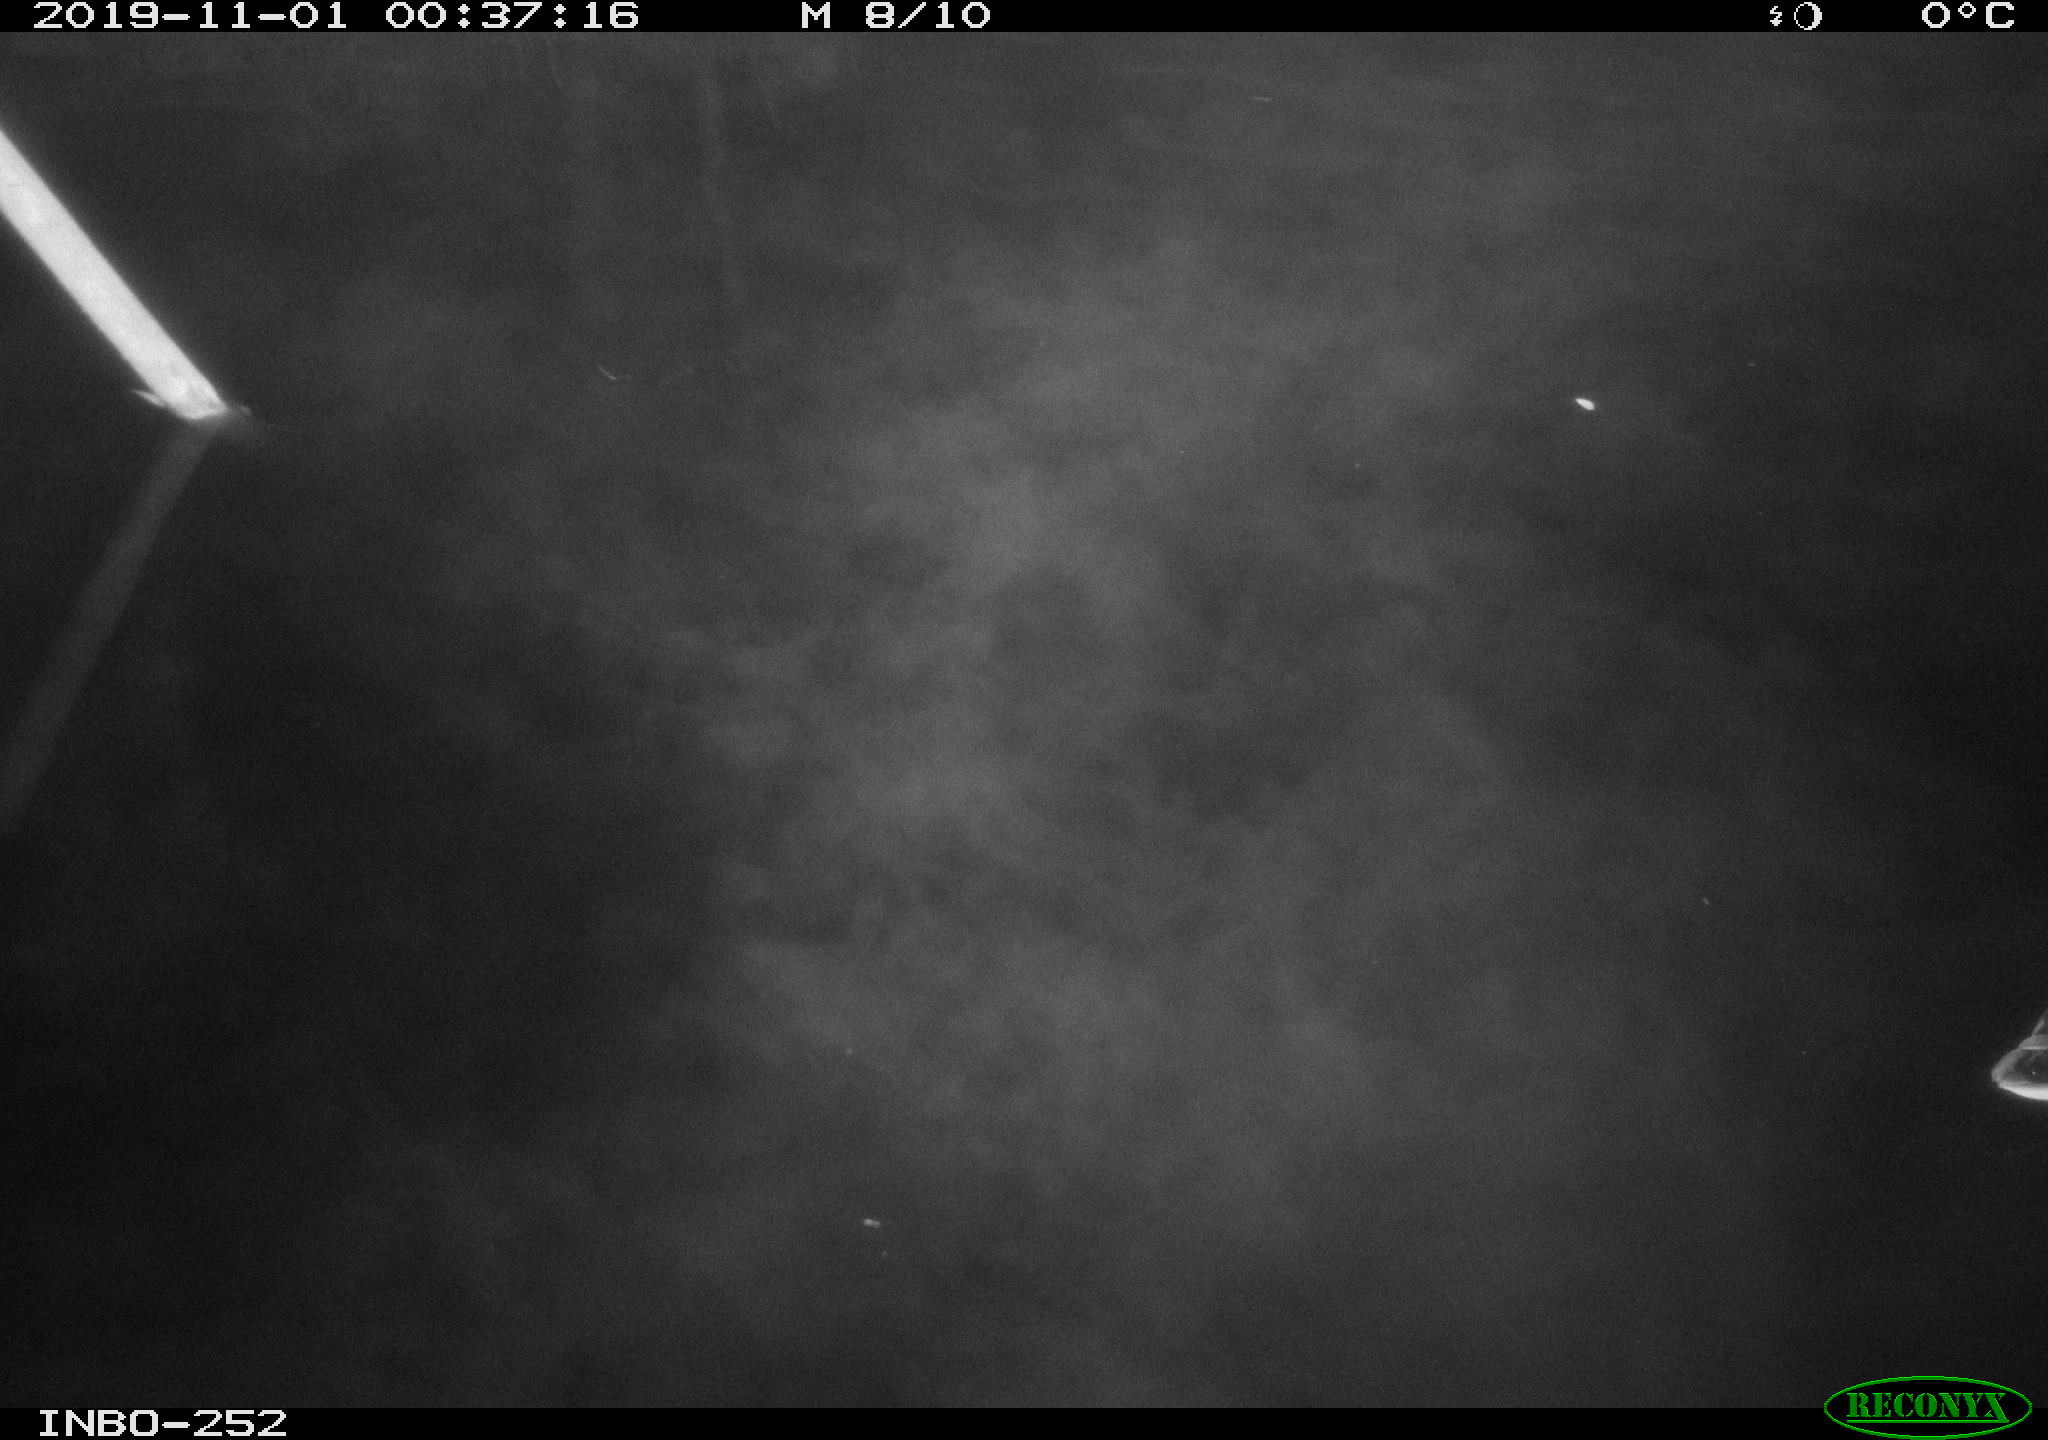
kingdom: Animalia
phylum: Chordata
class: Aves
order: Anseriformes
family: Anatidae
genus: Anas
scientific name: Anas platyrhynchos
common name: Mallard
